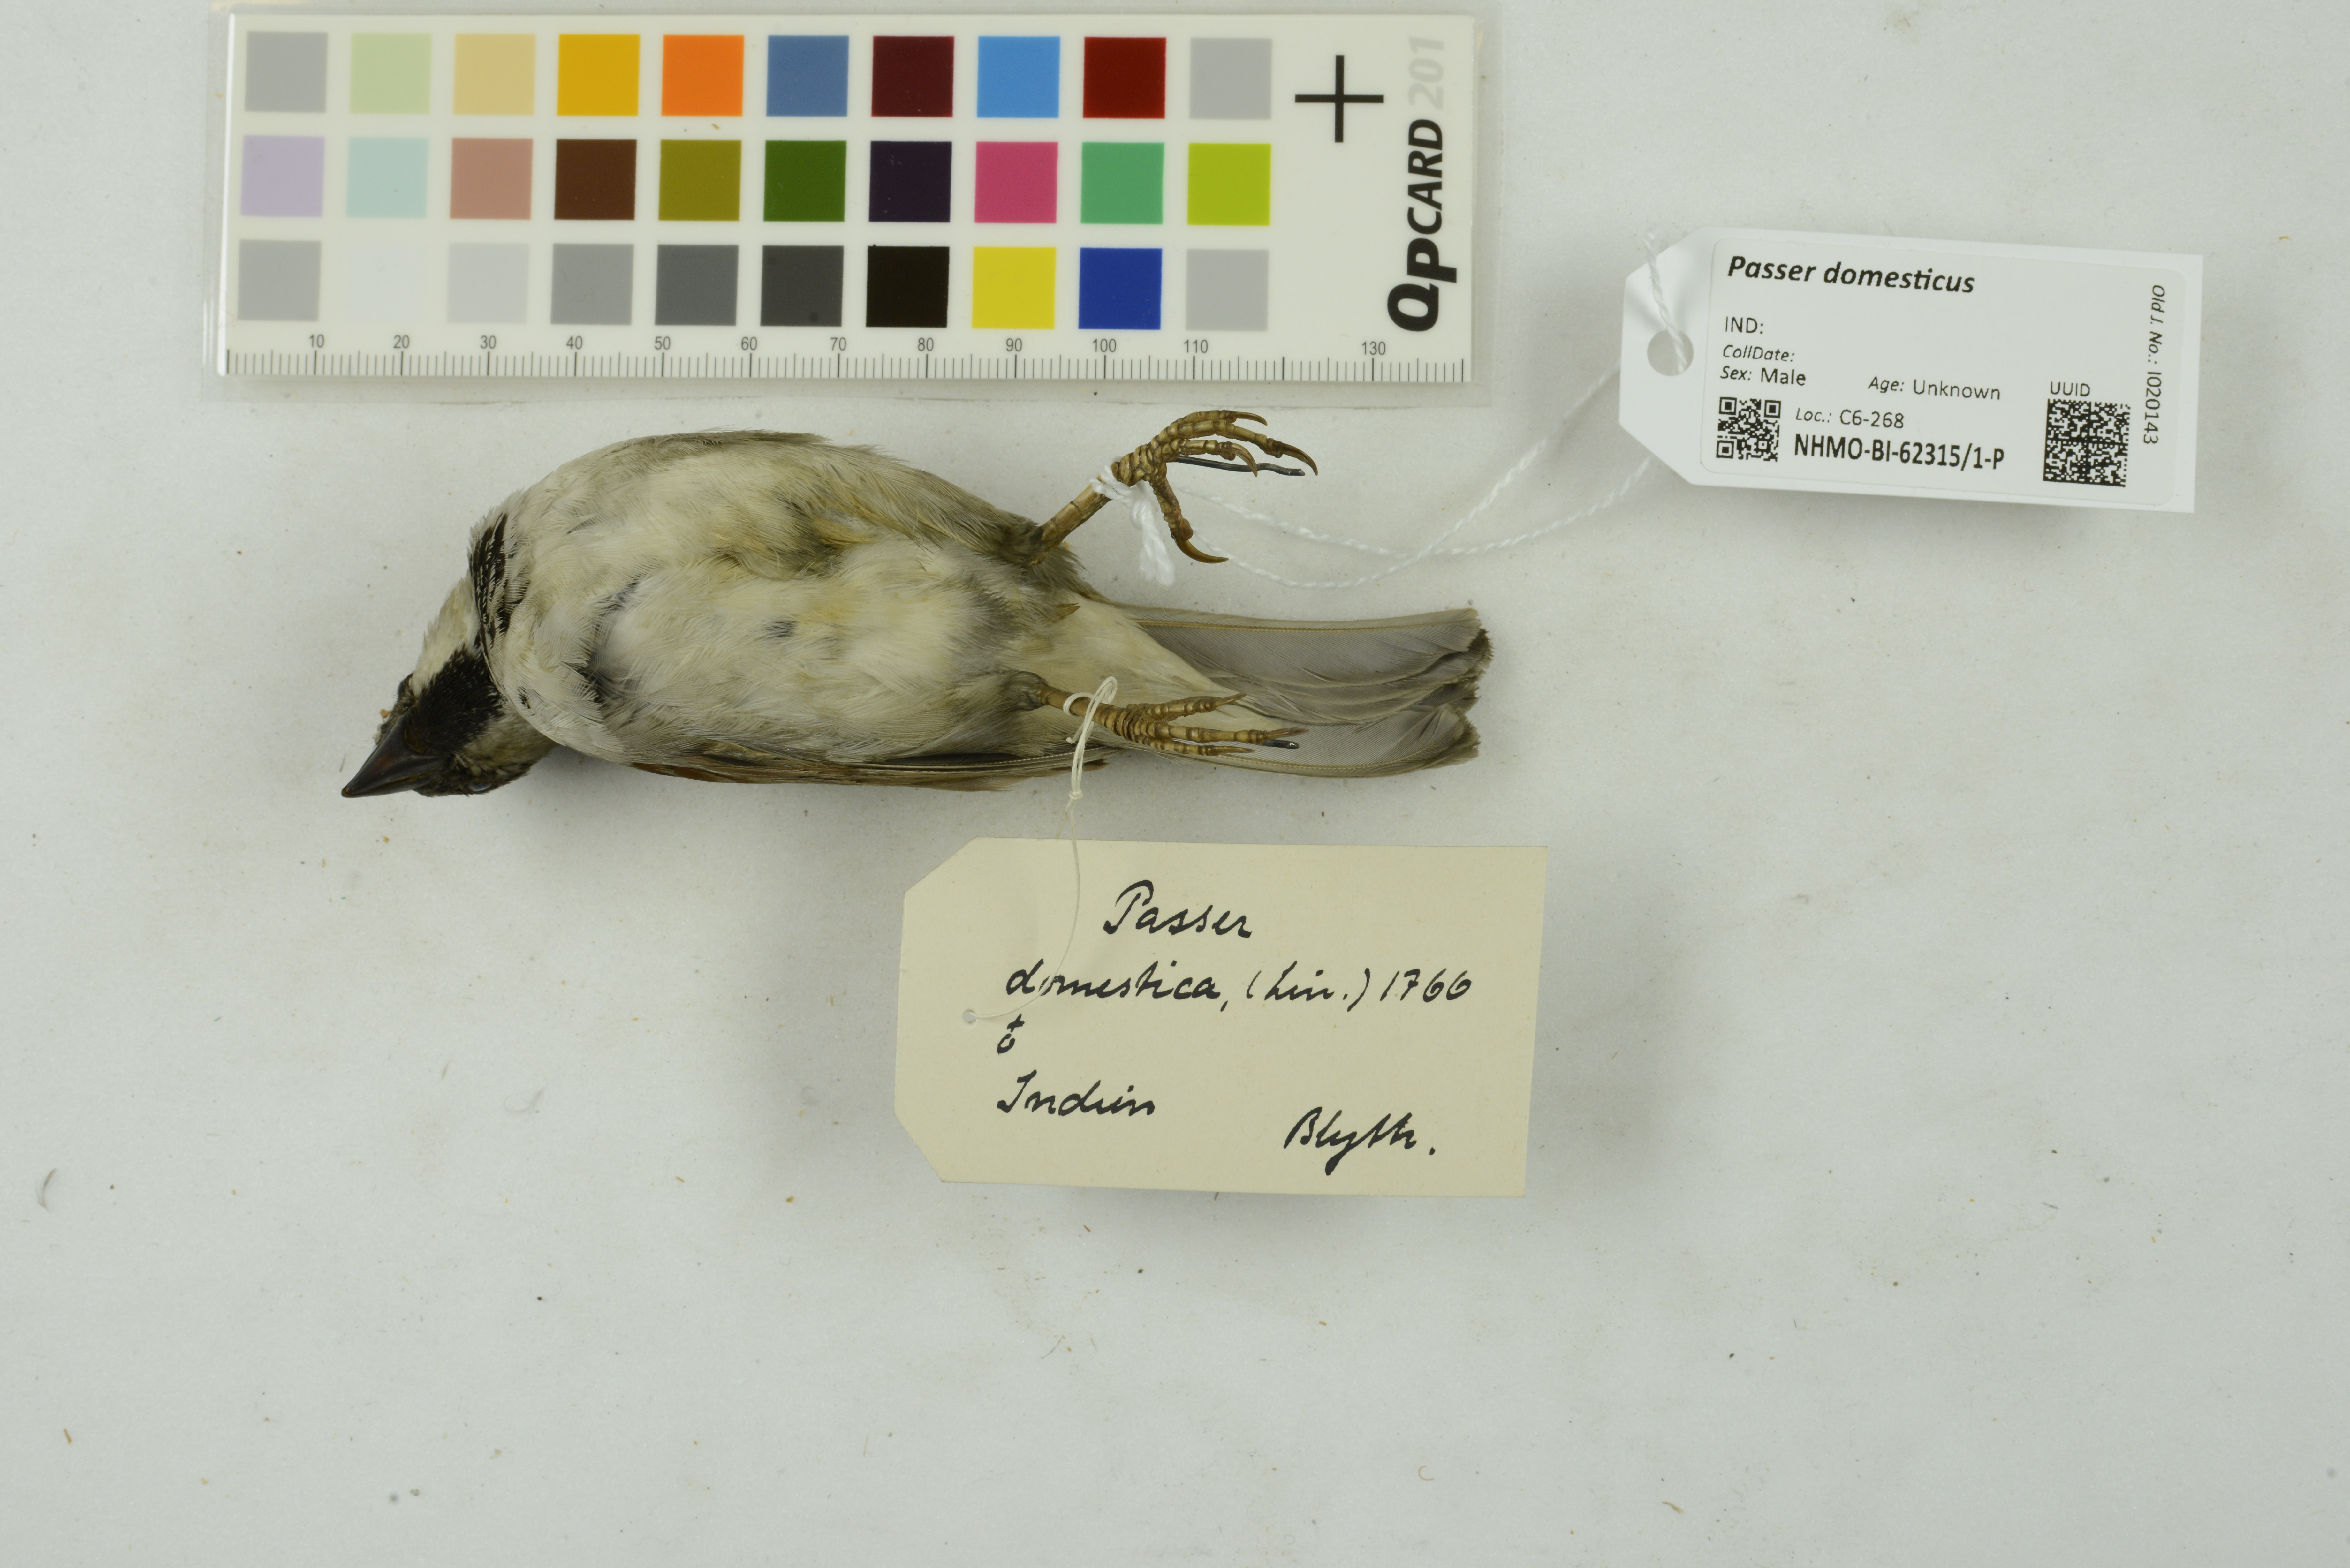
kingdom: Animalia
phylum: Chordata
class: Aves
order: Passeriformes
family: Passeridae
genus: Passer
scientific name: Passer domesticus
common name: House sparrow
